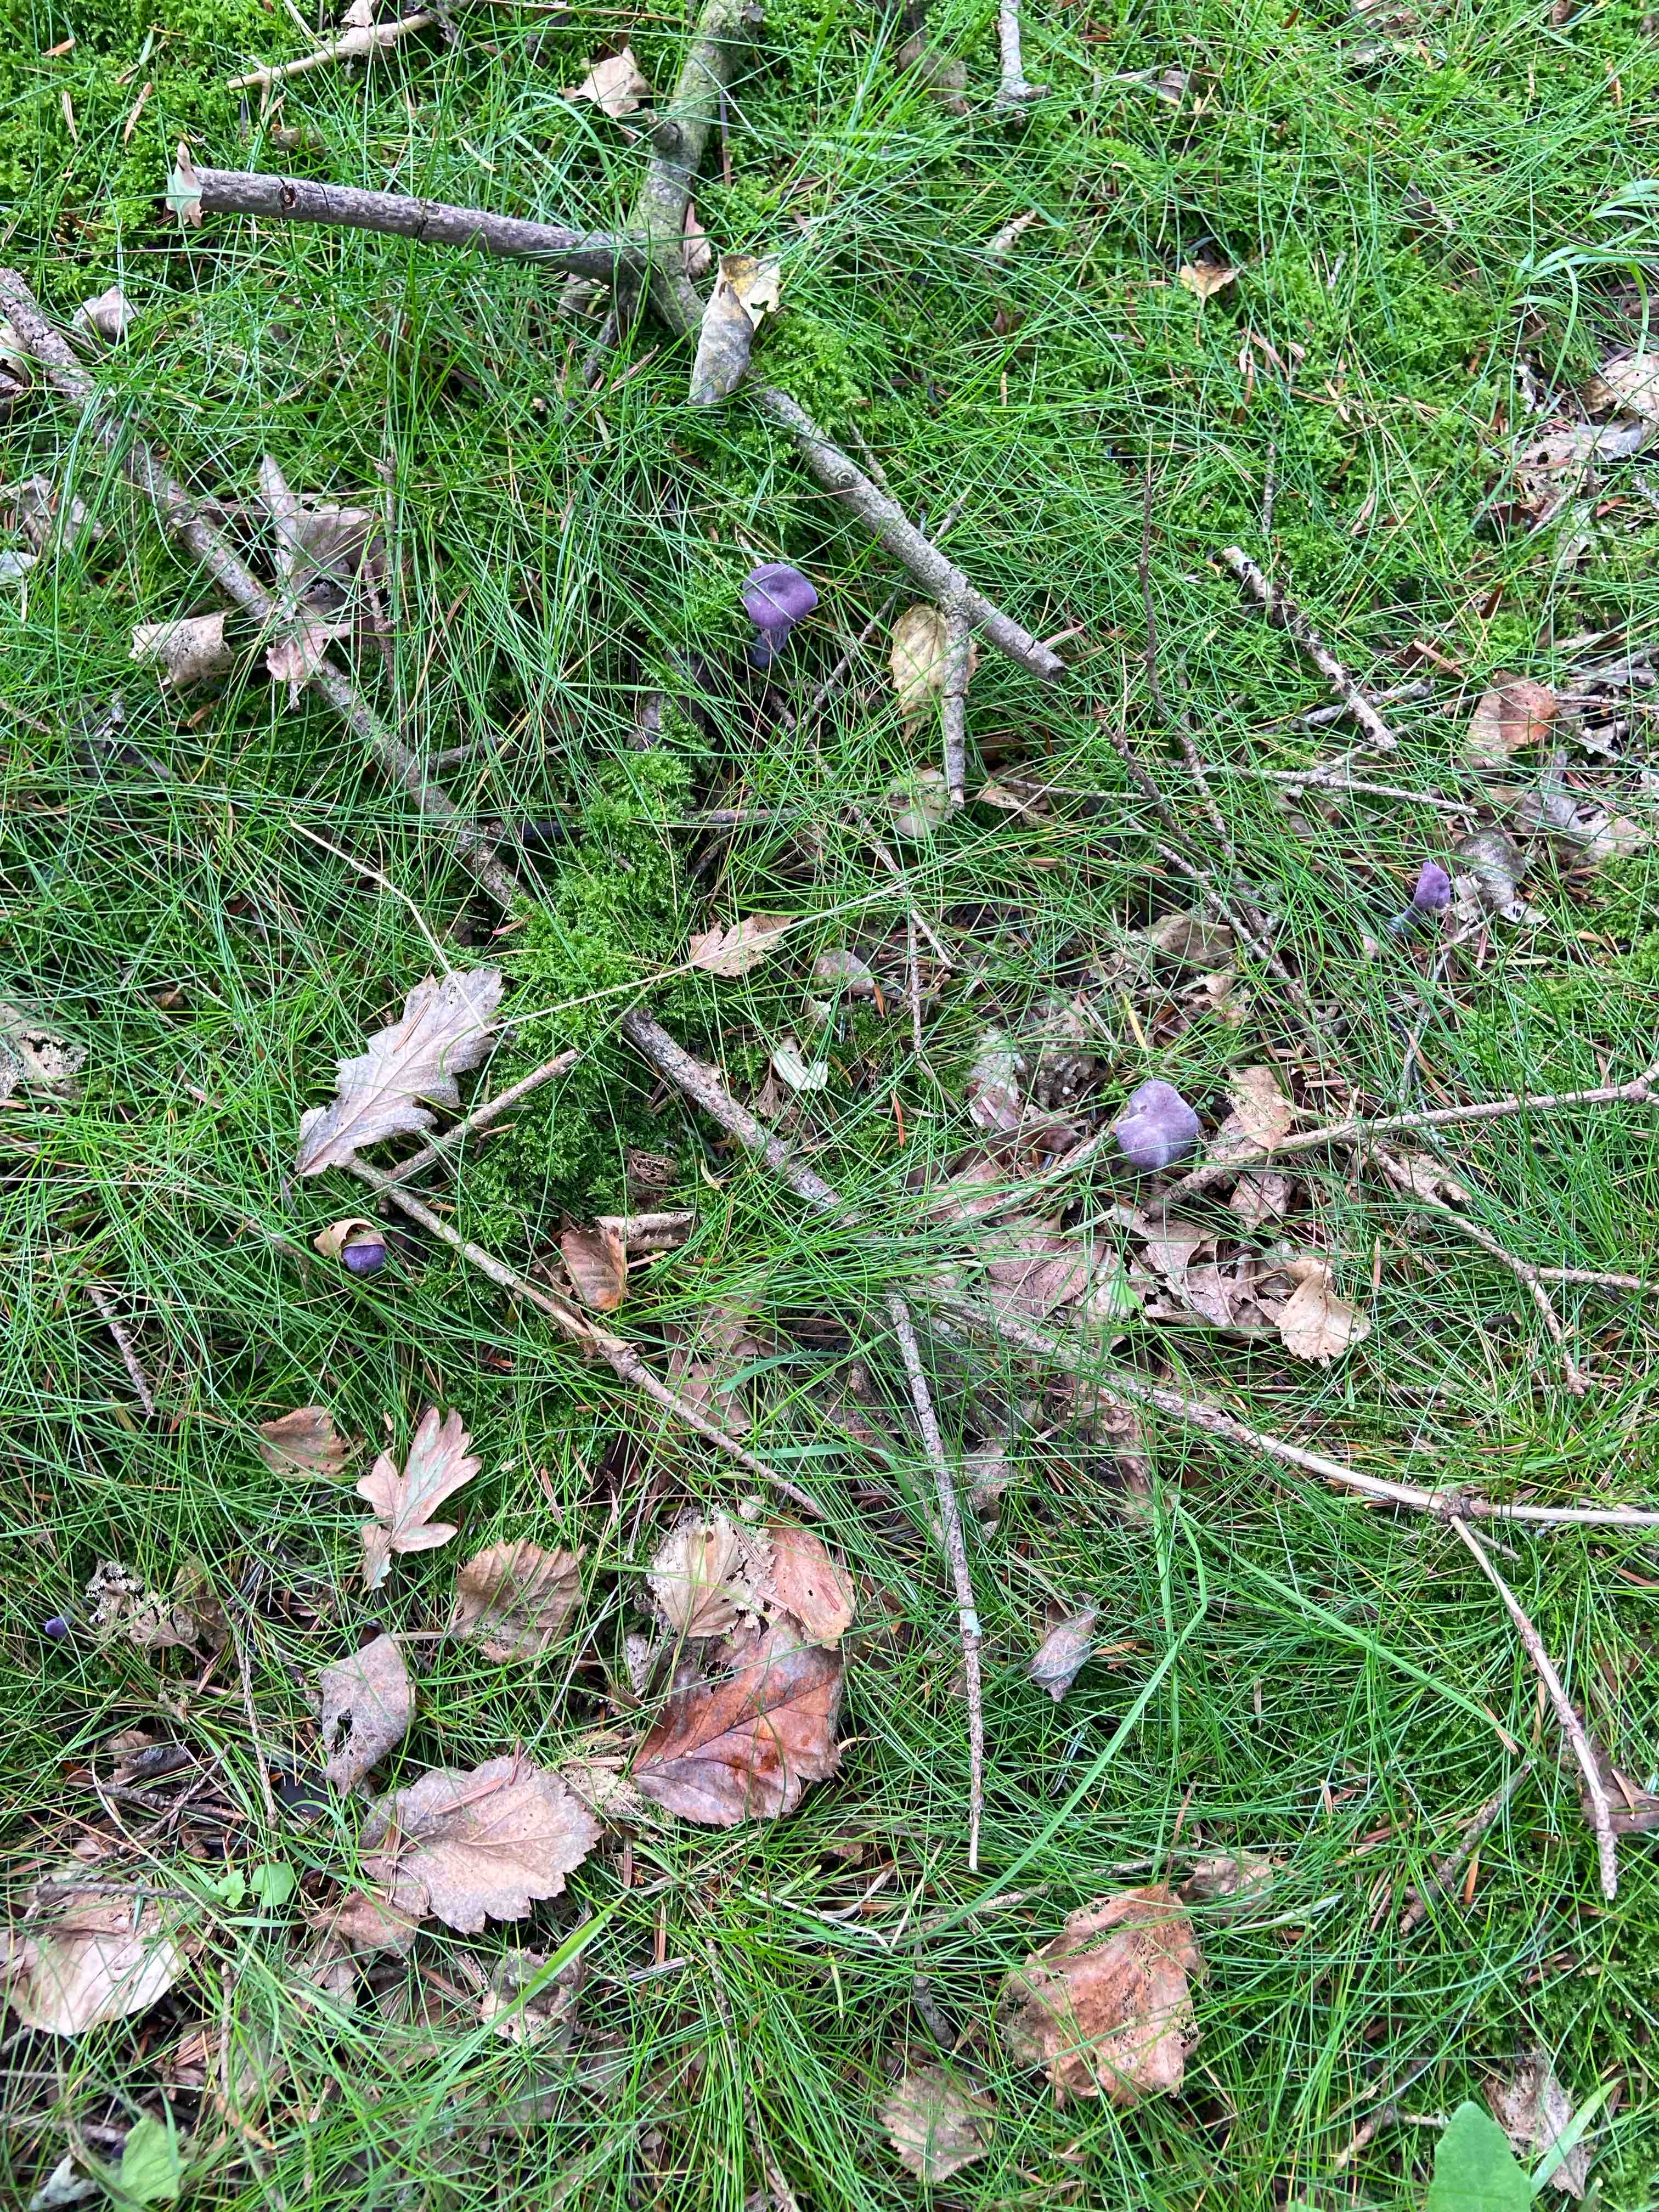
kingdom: Fungi
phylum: Basidiomycota
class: Agaricomycetes
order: Agaricales
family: Hydnangiaceae
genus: Laccaria
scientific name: Laccaria amethystina
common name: violet ametysthat
